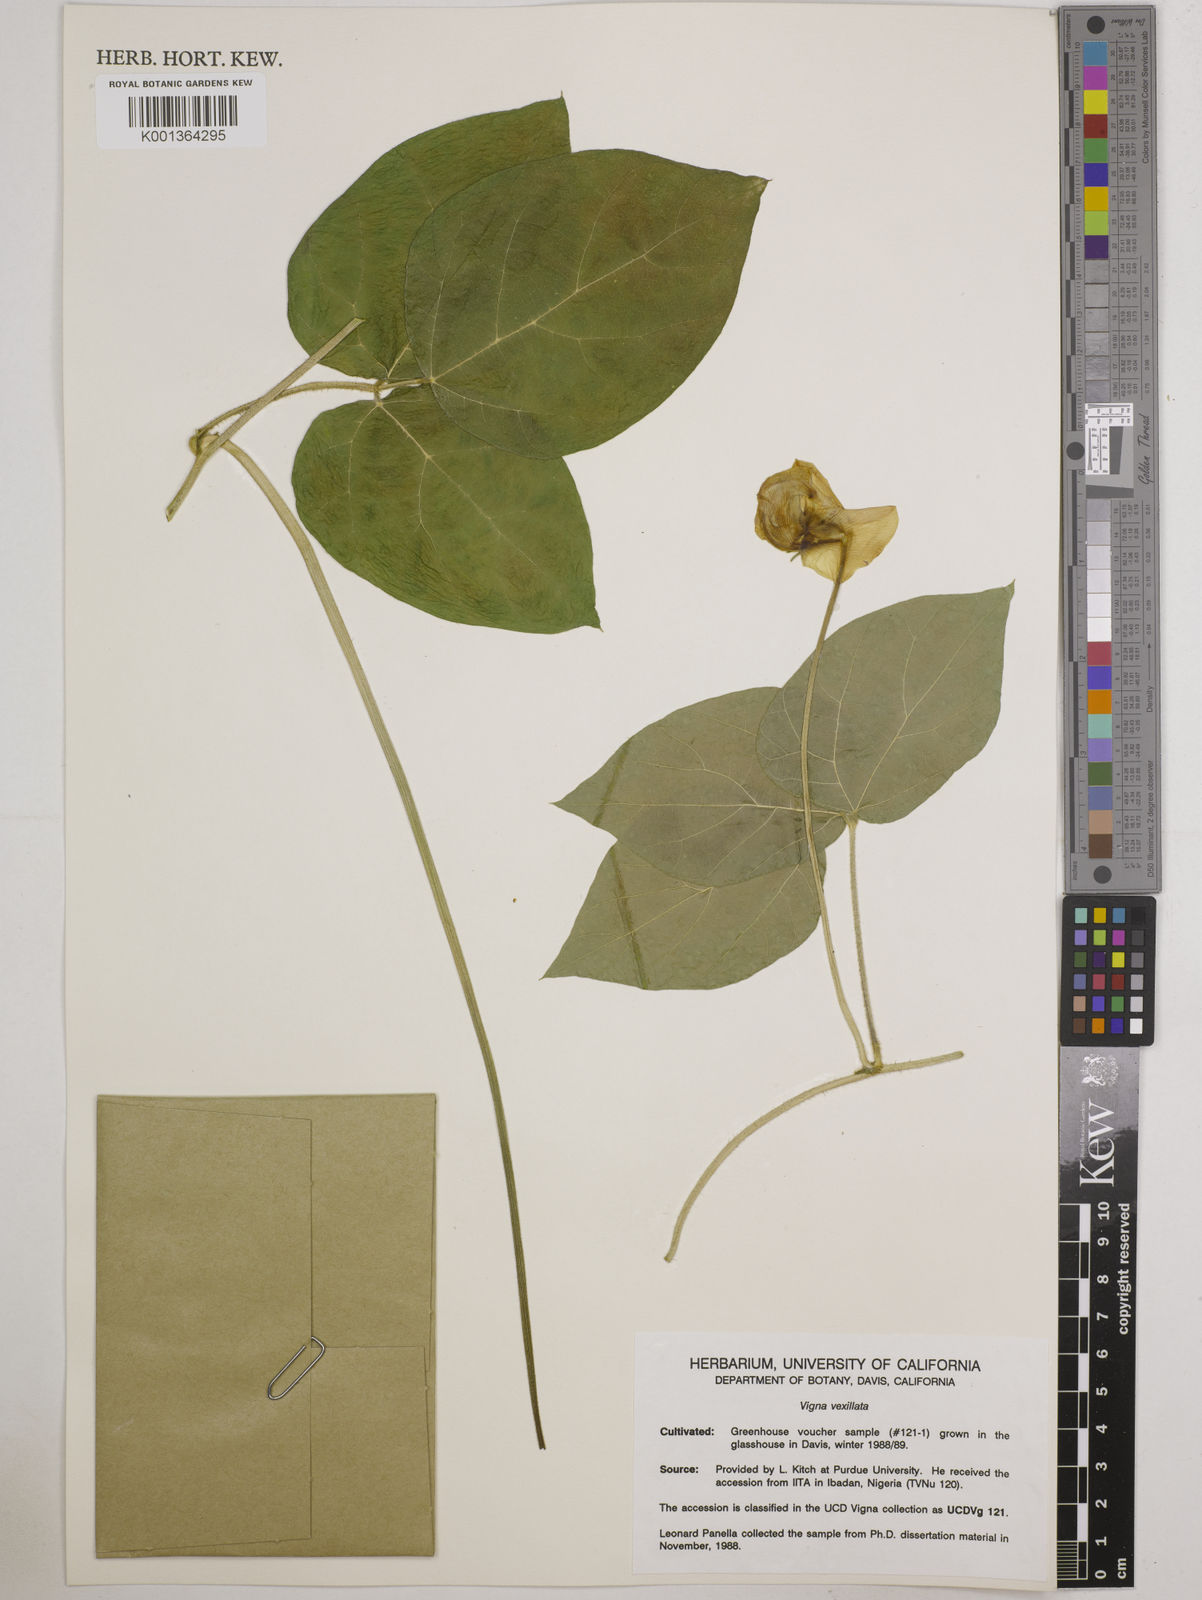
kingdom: Plantae
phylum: Tracheophyta
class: Magnoliopsida
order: Fabales
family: Fabaceae
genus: Vigna
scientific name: Vigna
